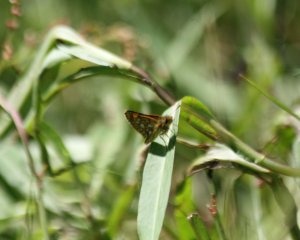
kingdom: Animalia
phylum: Arthropoda
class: Insecta
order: Lepidoptera
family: Hesperiidae
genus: Carterocephalus
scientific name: Carterocephalus palaemon
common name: Chequered Skipper
